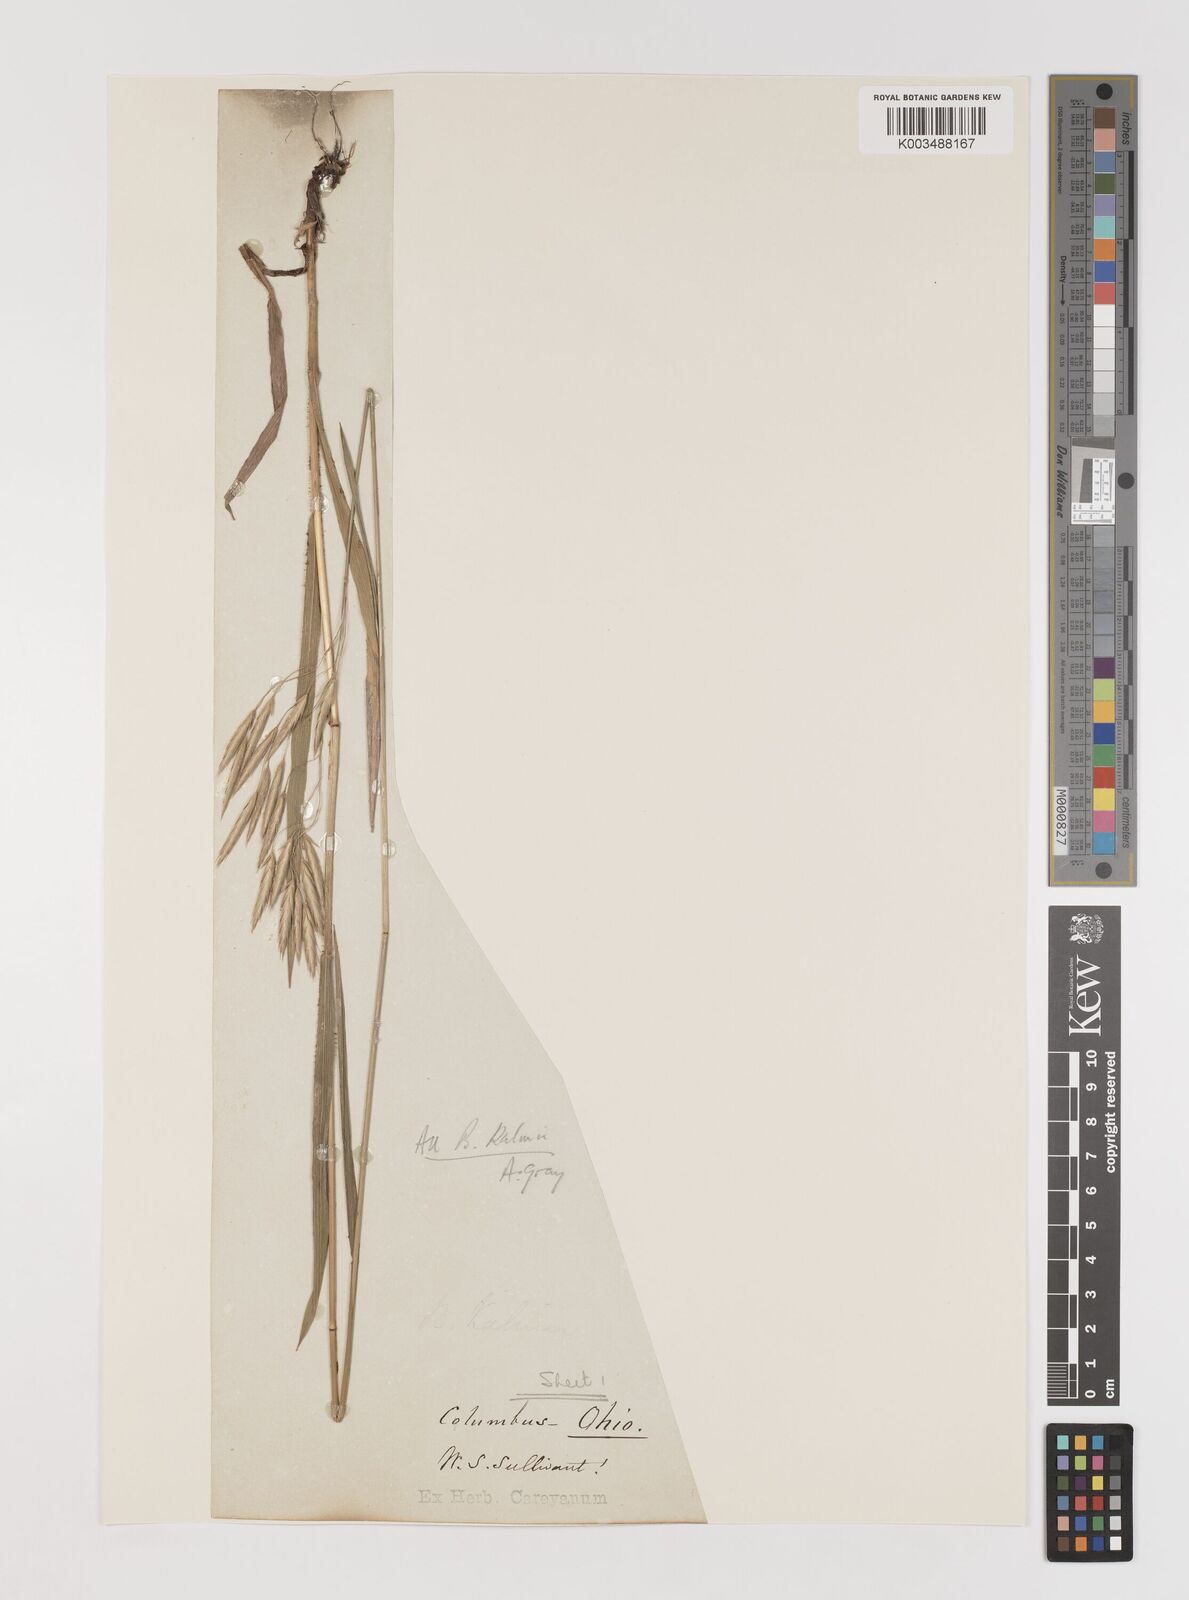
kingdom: Plantae
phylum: Tracheophyta
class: Liliopsida
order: Poales
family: Poaceae
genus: Bromus
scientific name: Bromus kalmii
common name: Kalm brome
